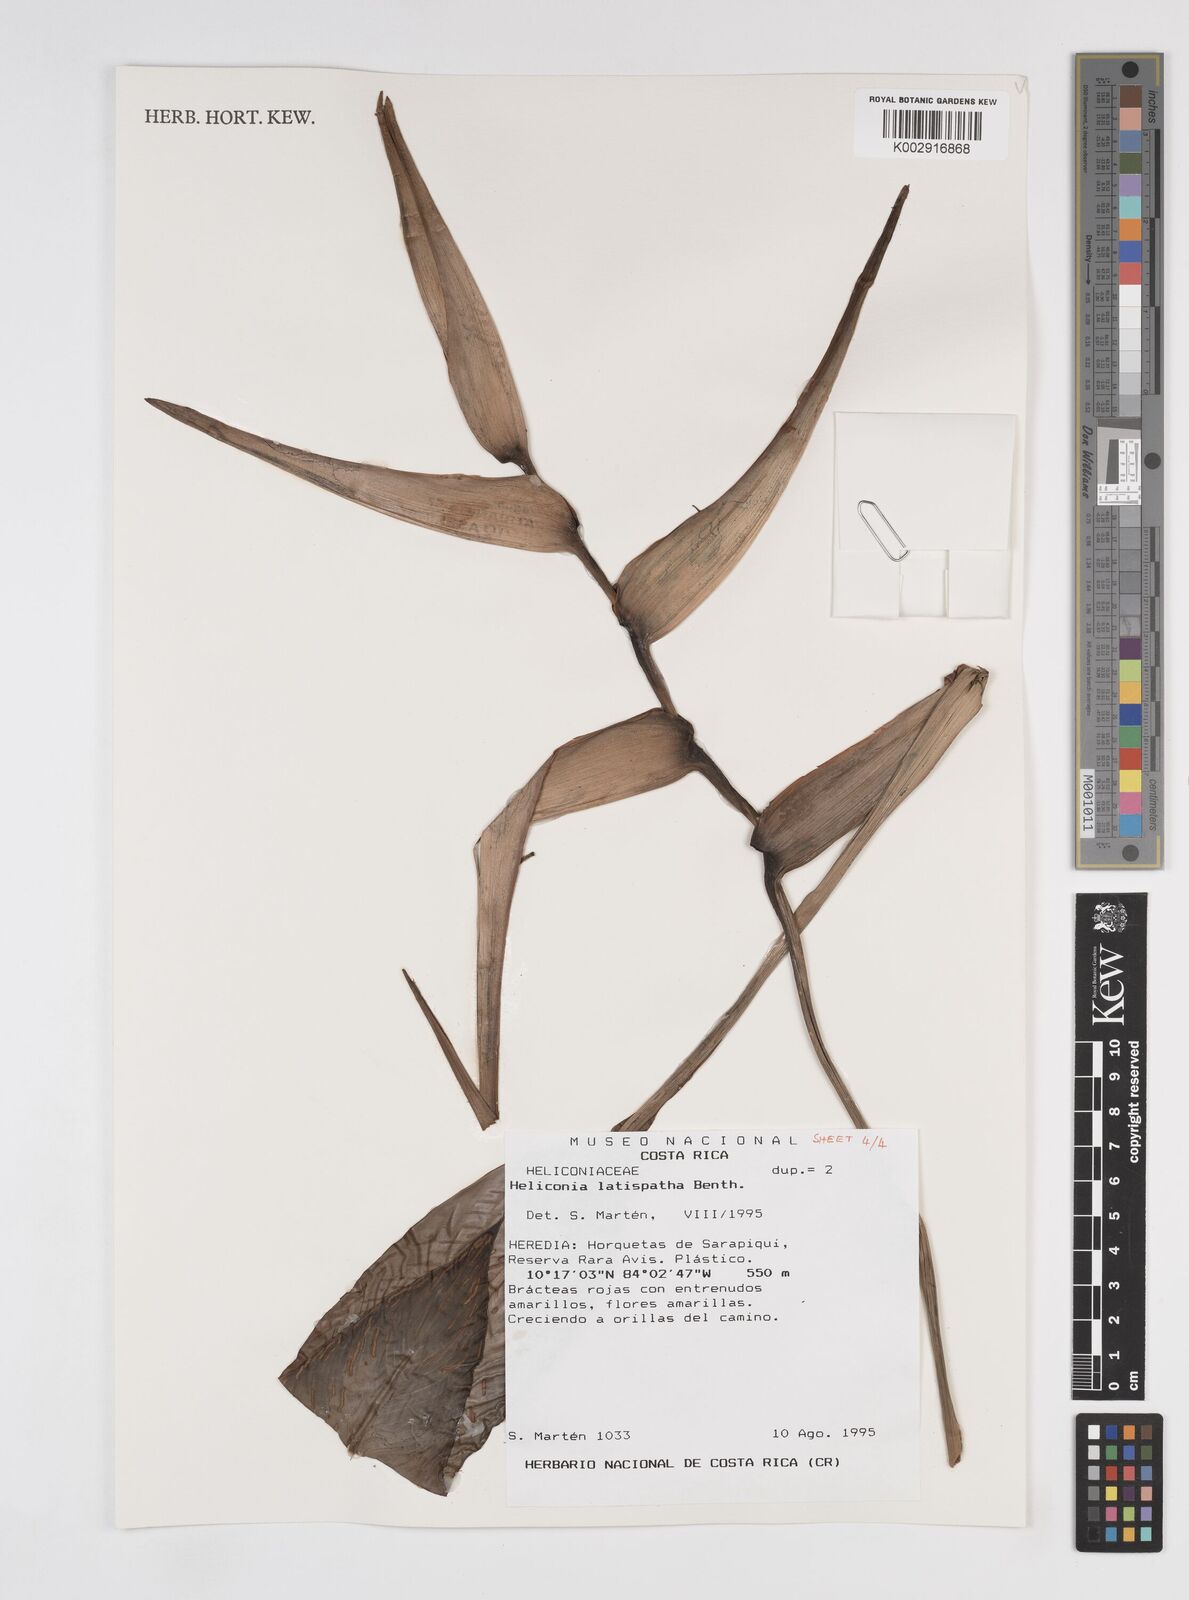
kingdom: Plantae
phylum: Tracheophyta
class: Liliopsida
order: Zingiberales
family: Heliconiaceae
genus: Heliconia
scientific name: Heliconia latispatha
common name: Expanded lobsterclaw
